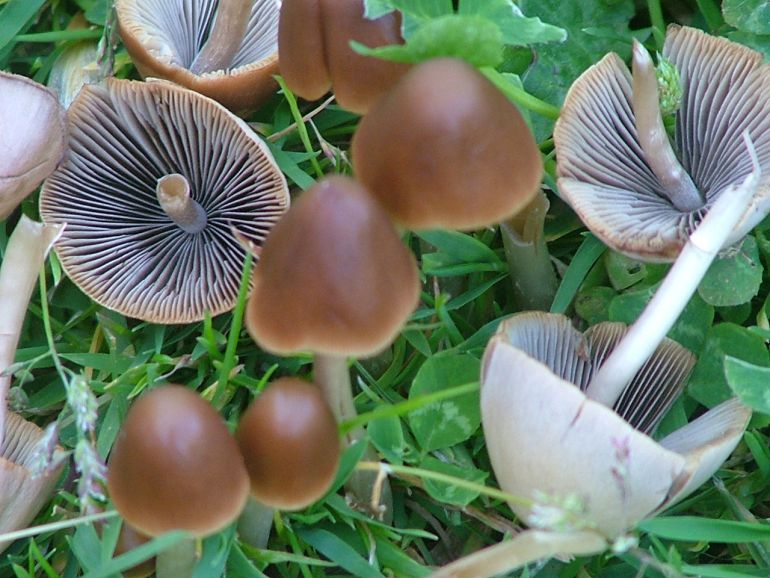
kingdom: Fungi
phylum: Basidiomycota
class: Agaricomycetes
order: Agaricales
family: Psathyrellaceae
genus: Parasola
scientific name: Parasola conopilea
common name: kegle-hjulhat
